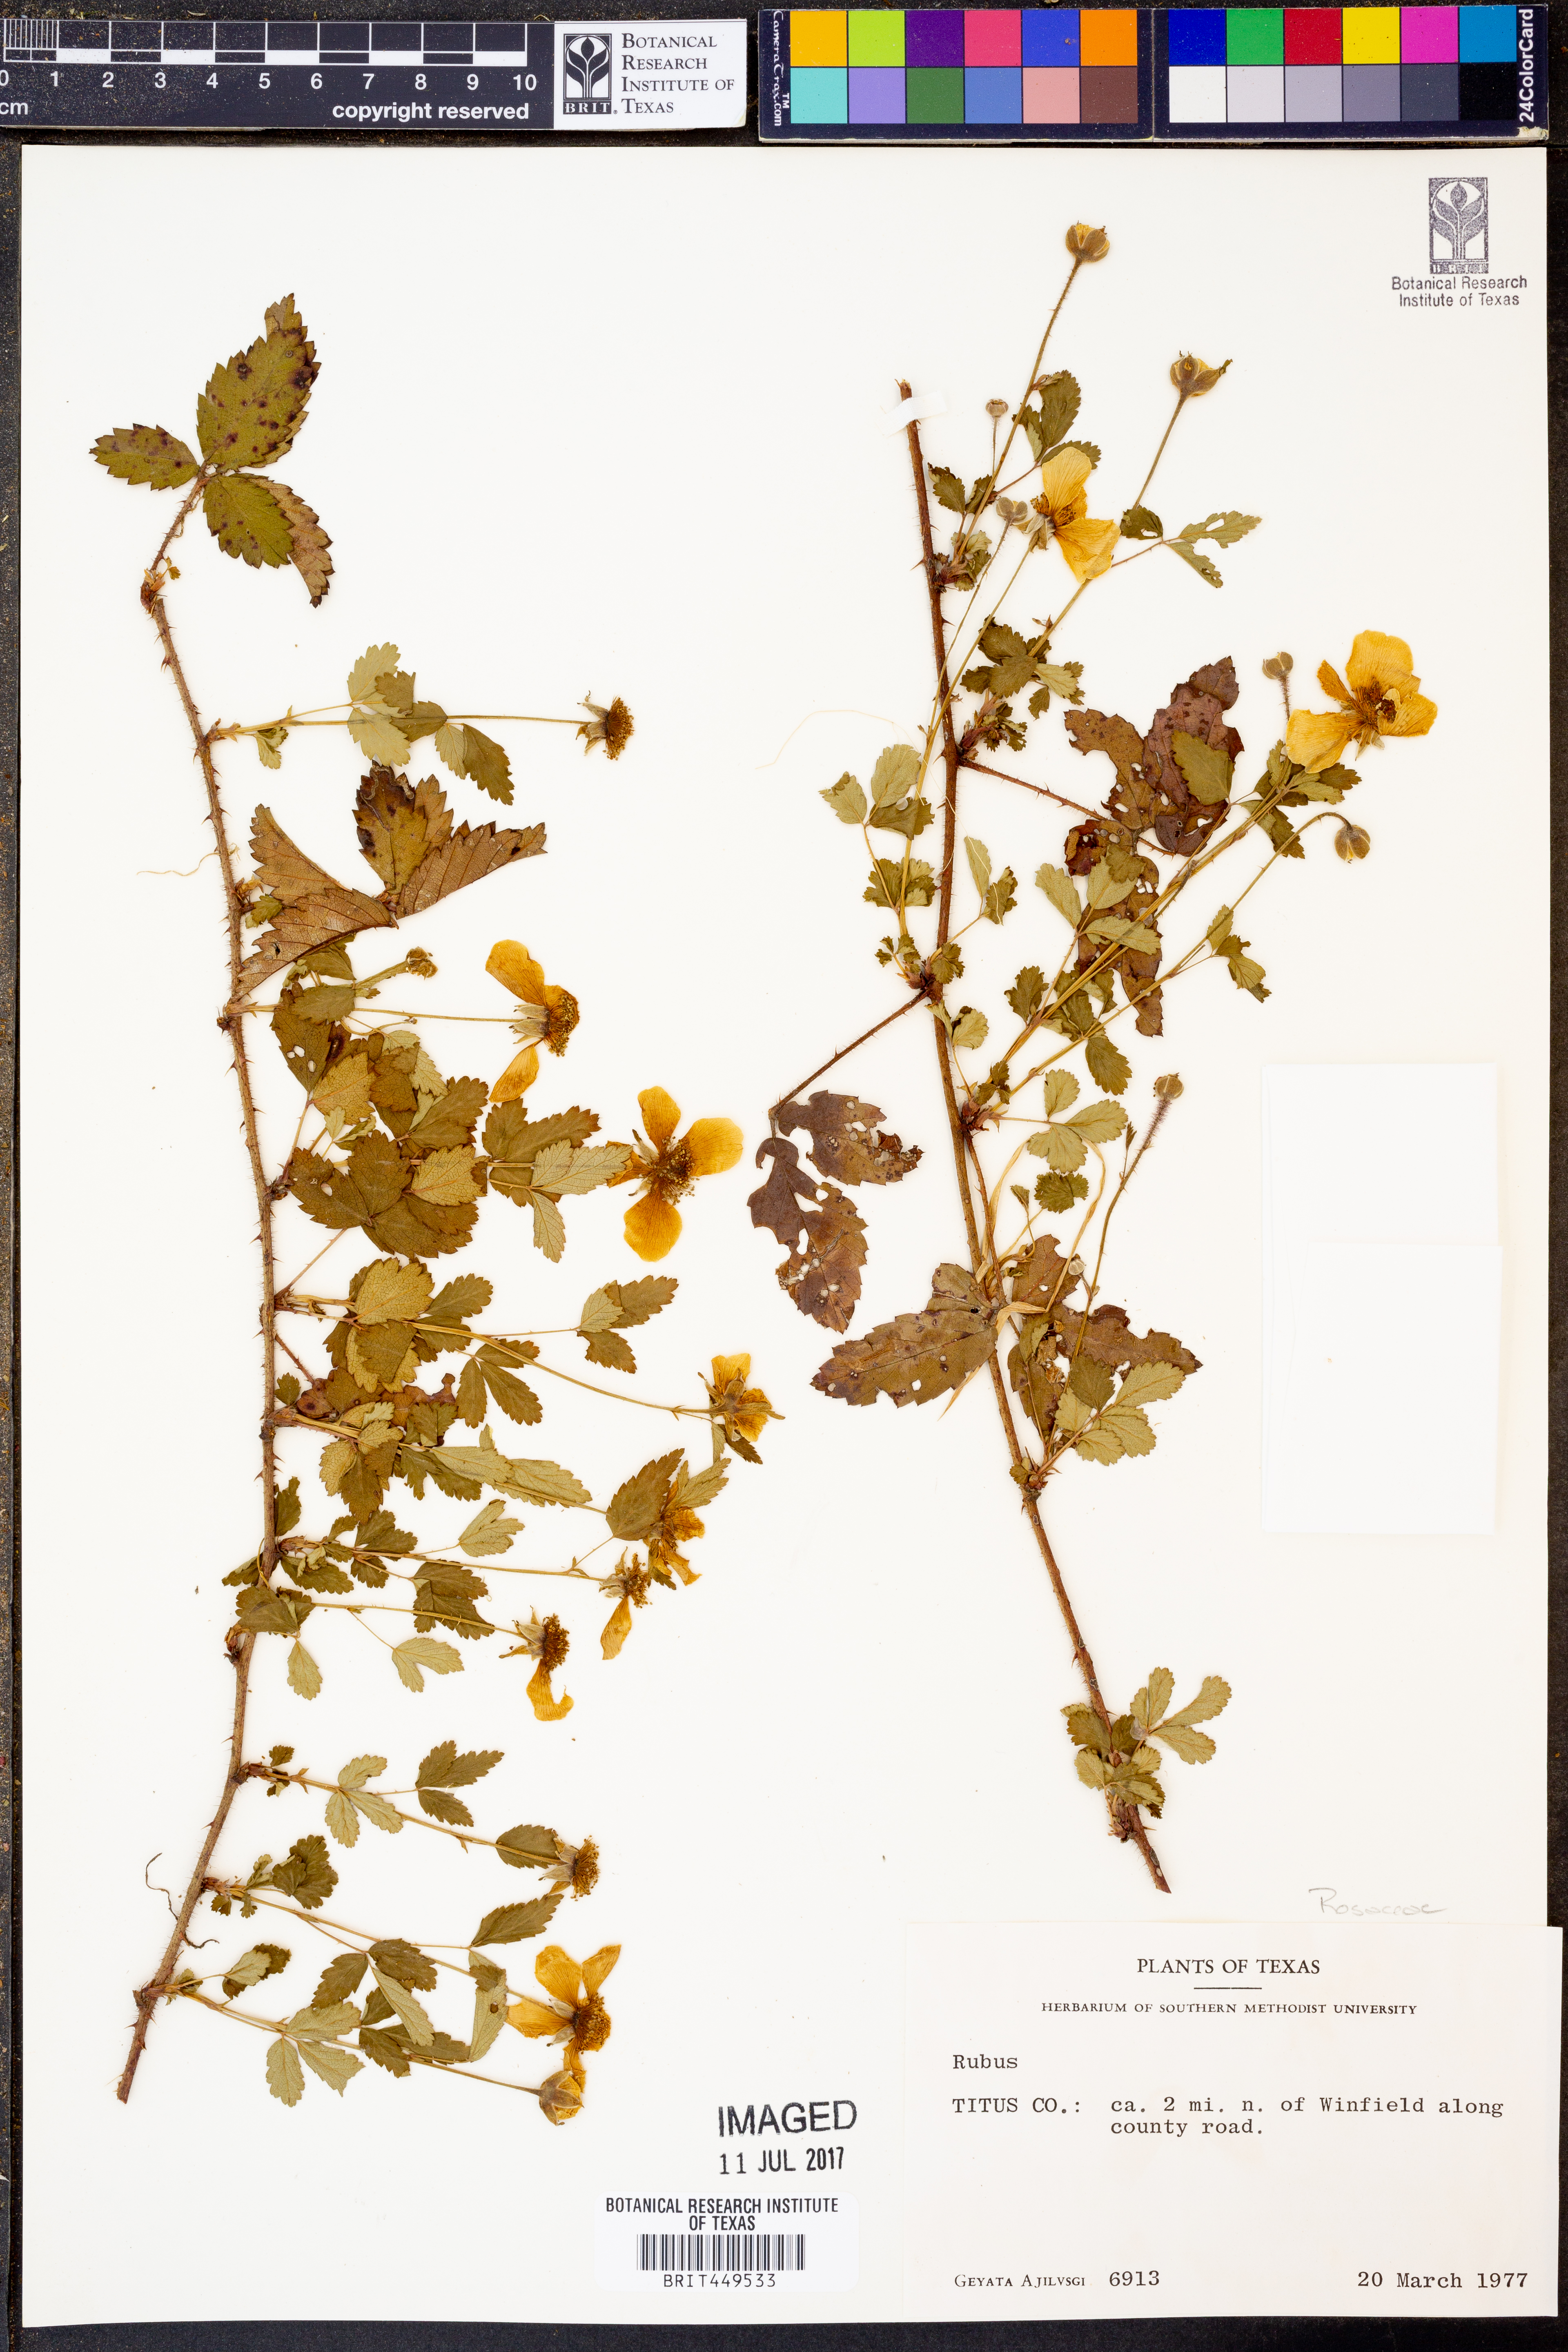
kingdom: Plantae
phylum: Tracheophyta
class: Magnoliopsida
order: Rosales
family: Rosaceae
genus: Rubus
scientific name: Rubus
